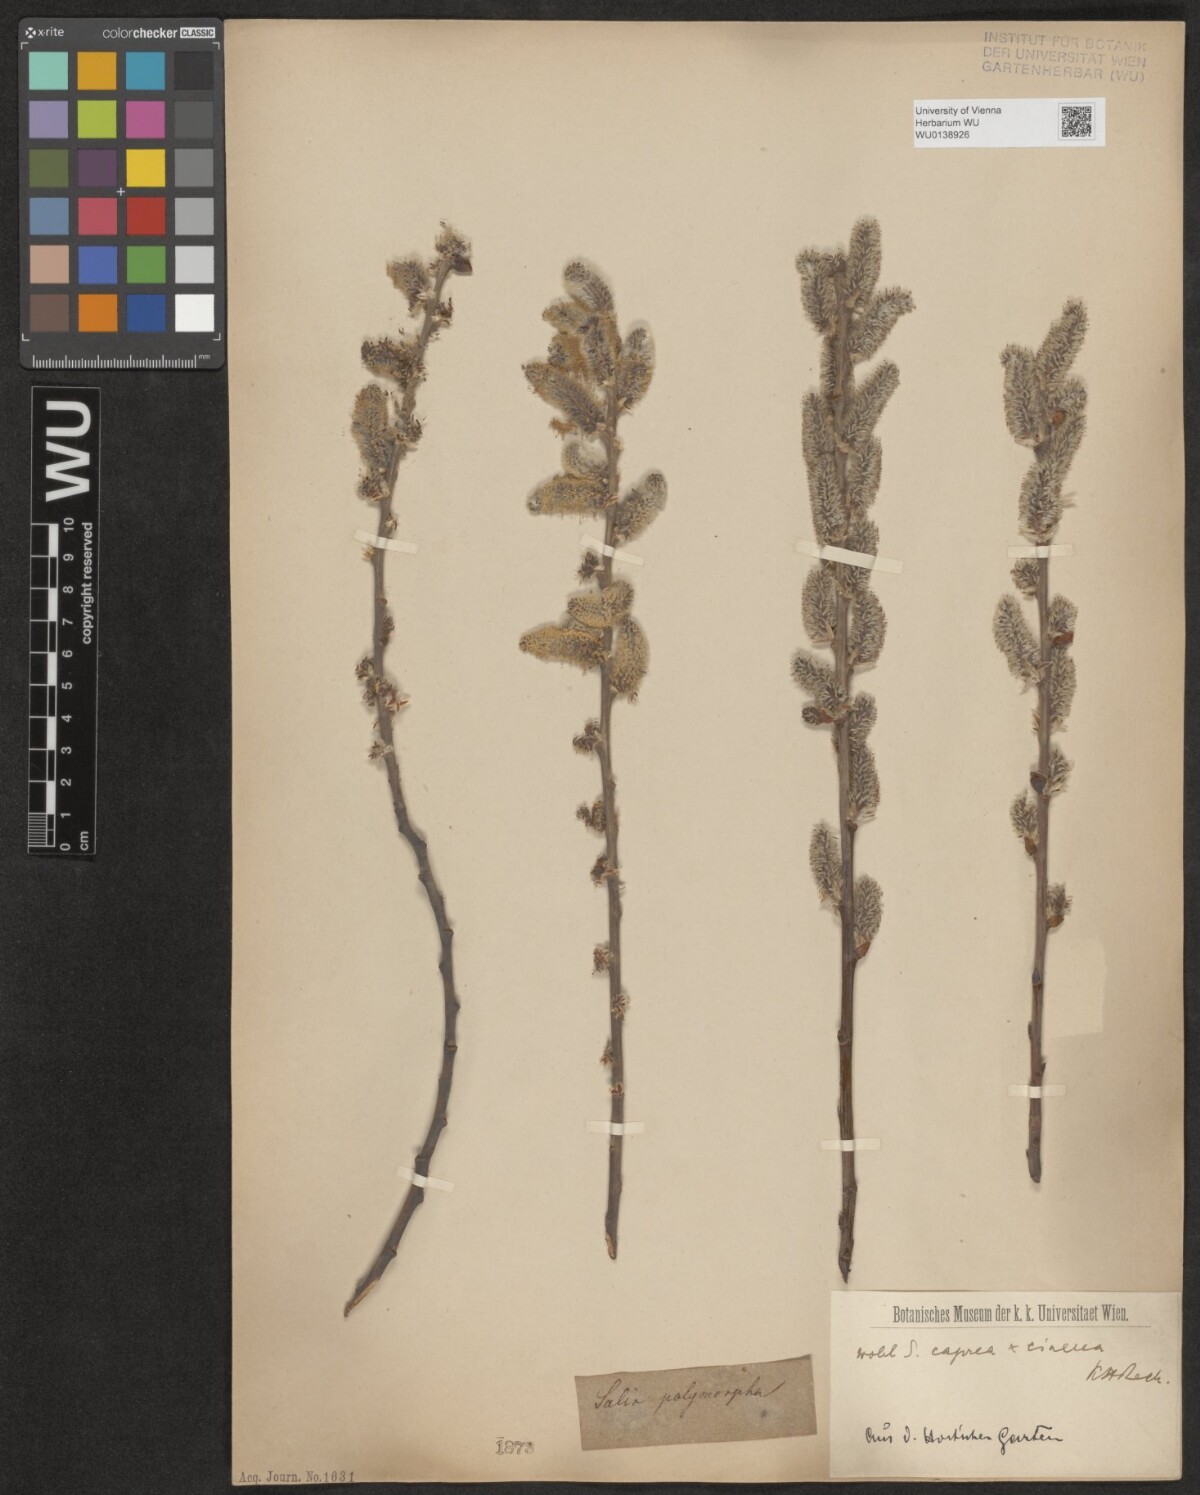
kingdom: Plantae
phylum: Tracheophyta
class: Magnoliopsida
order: Malpighiales
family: Salicaceae
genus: Salix
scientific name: Salix repens
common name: Creeping willow
